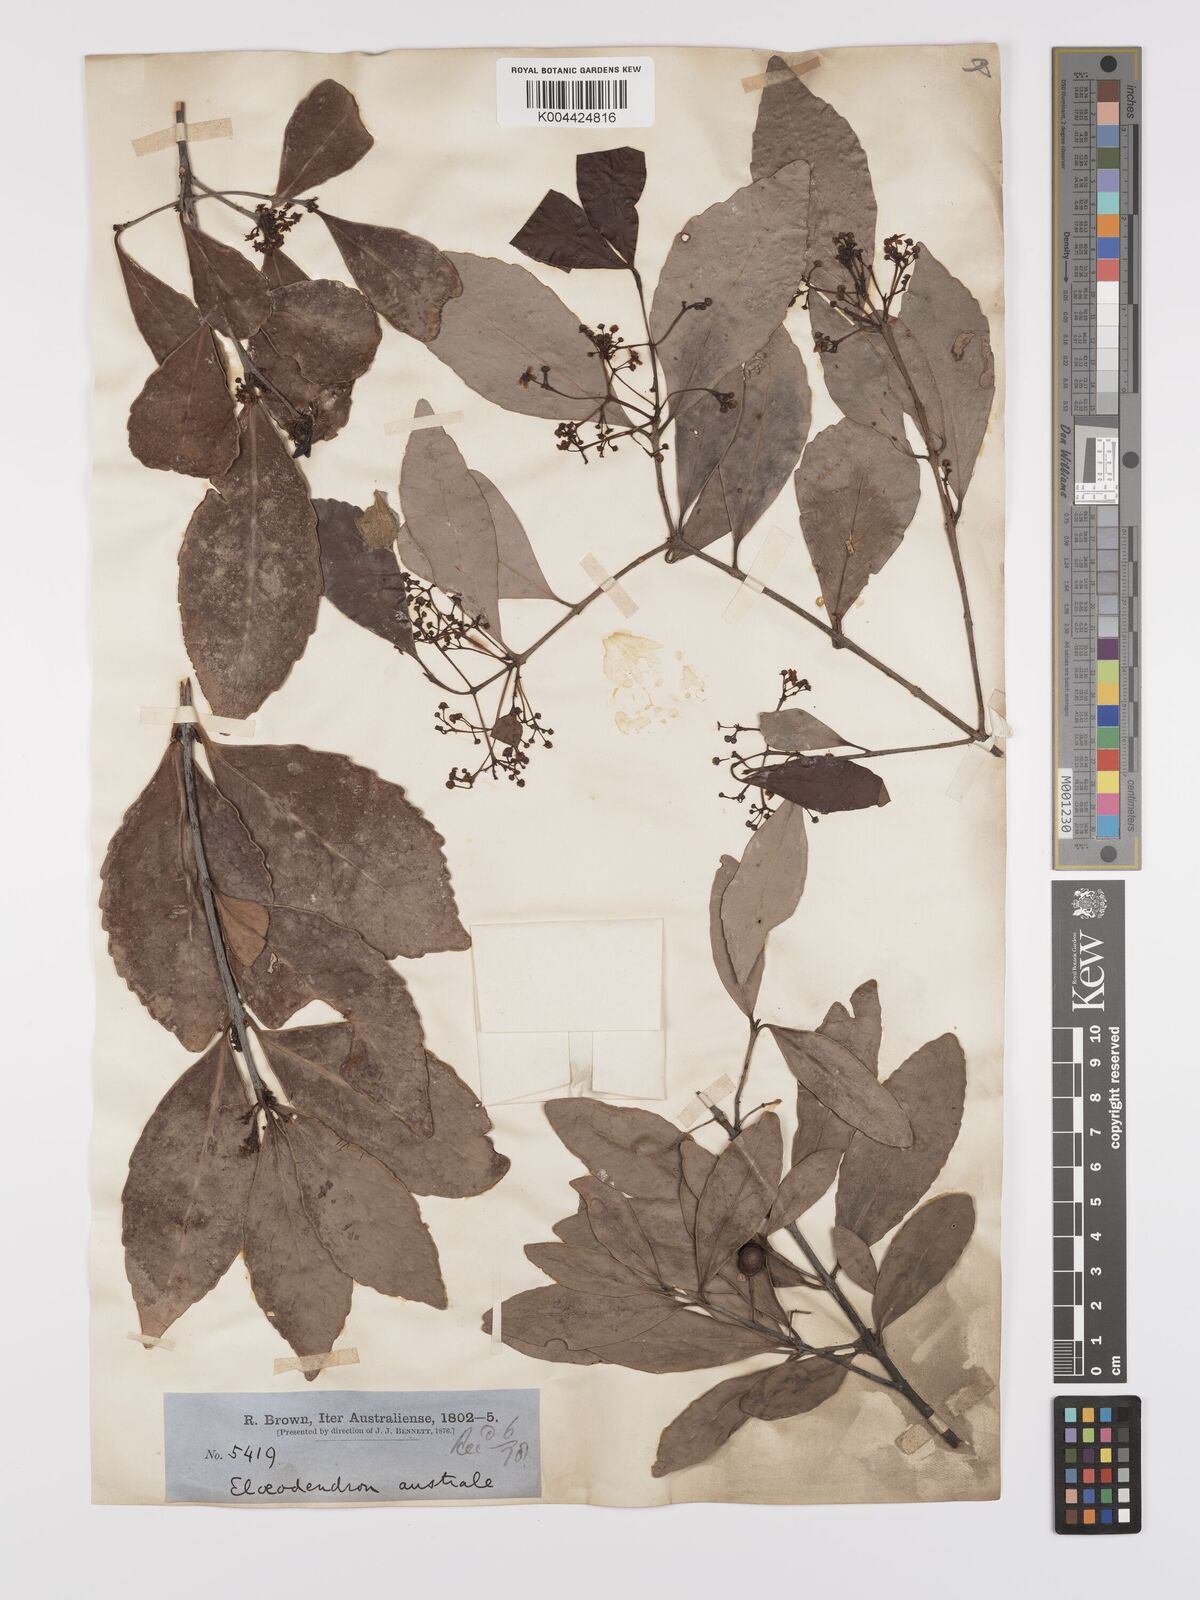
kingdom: Plantae
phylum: Tracheophyta
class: Magnoliopsida
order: Celastrales
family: Celastraceae
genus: Elaeodendron
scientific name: Elaeodendron australe
